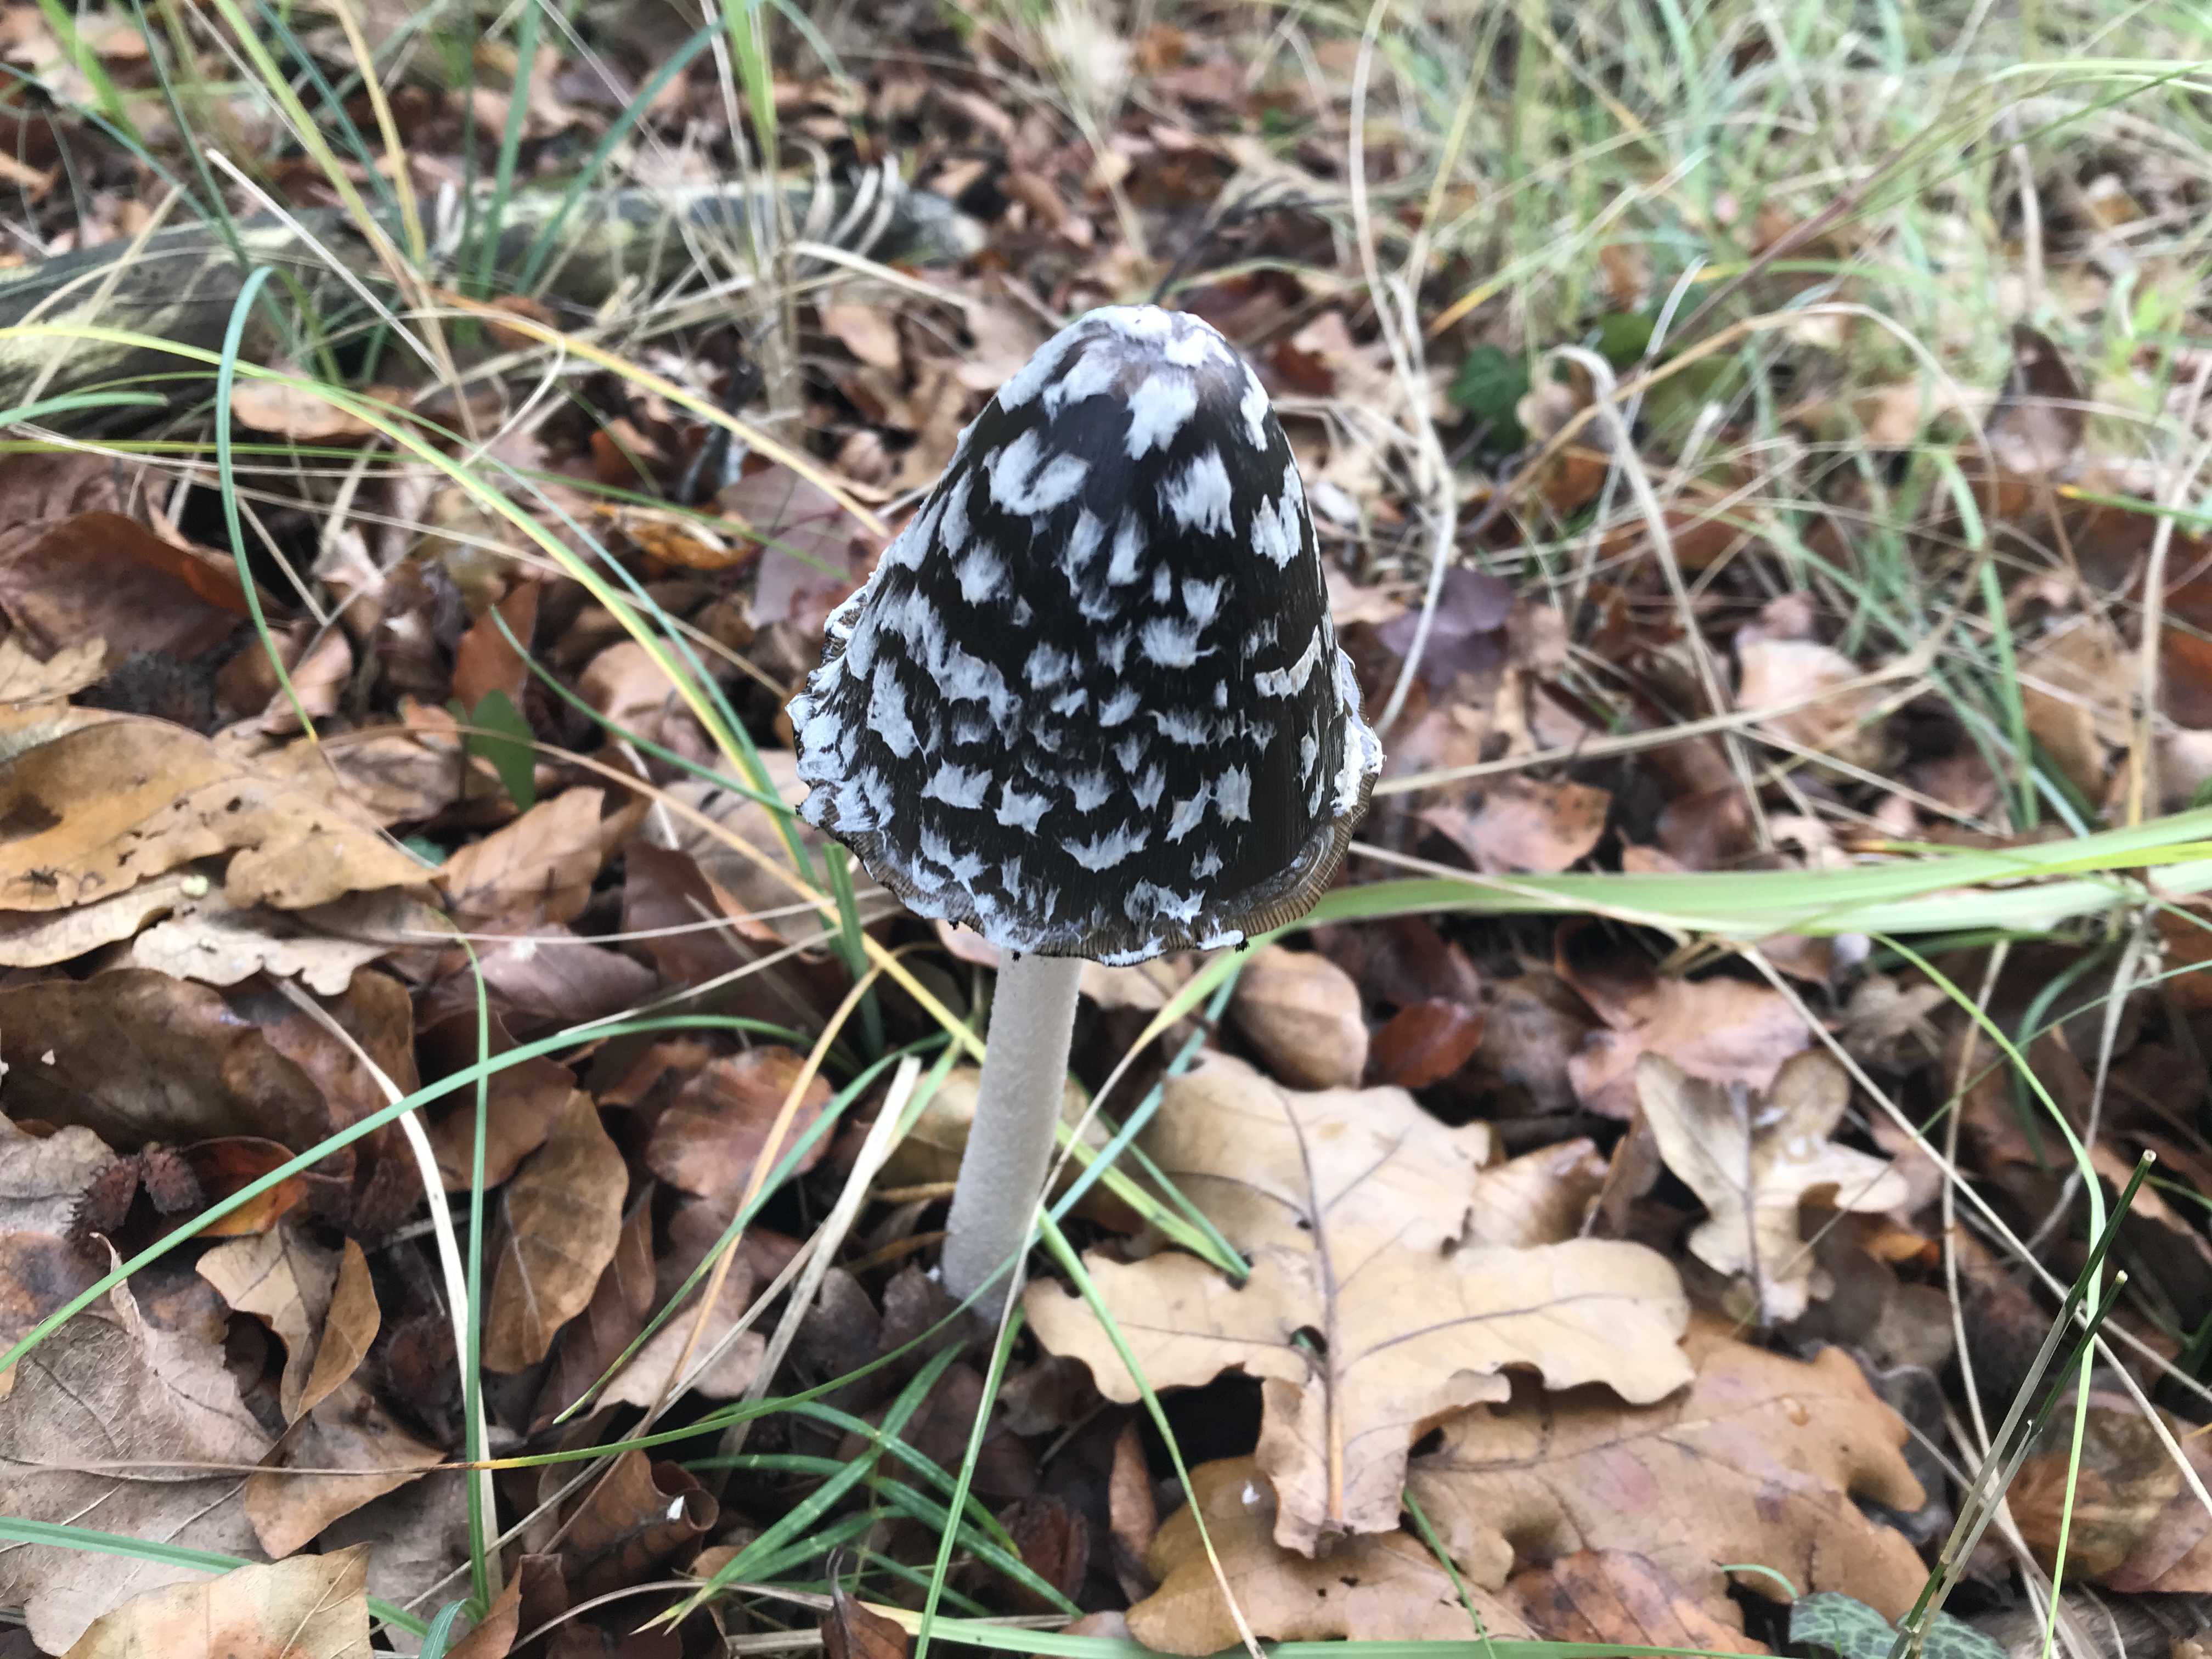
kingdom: Fungi
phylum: Basidiomycota
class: Agaricomycetes
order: Agaricales
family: Psathyrellaceae
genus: Coprinopsis
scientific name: Coprinopsis picacea
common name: skade-blækhat
